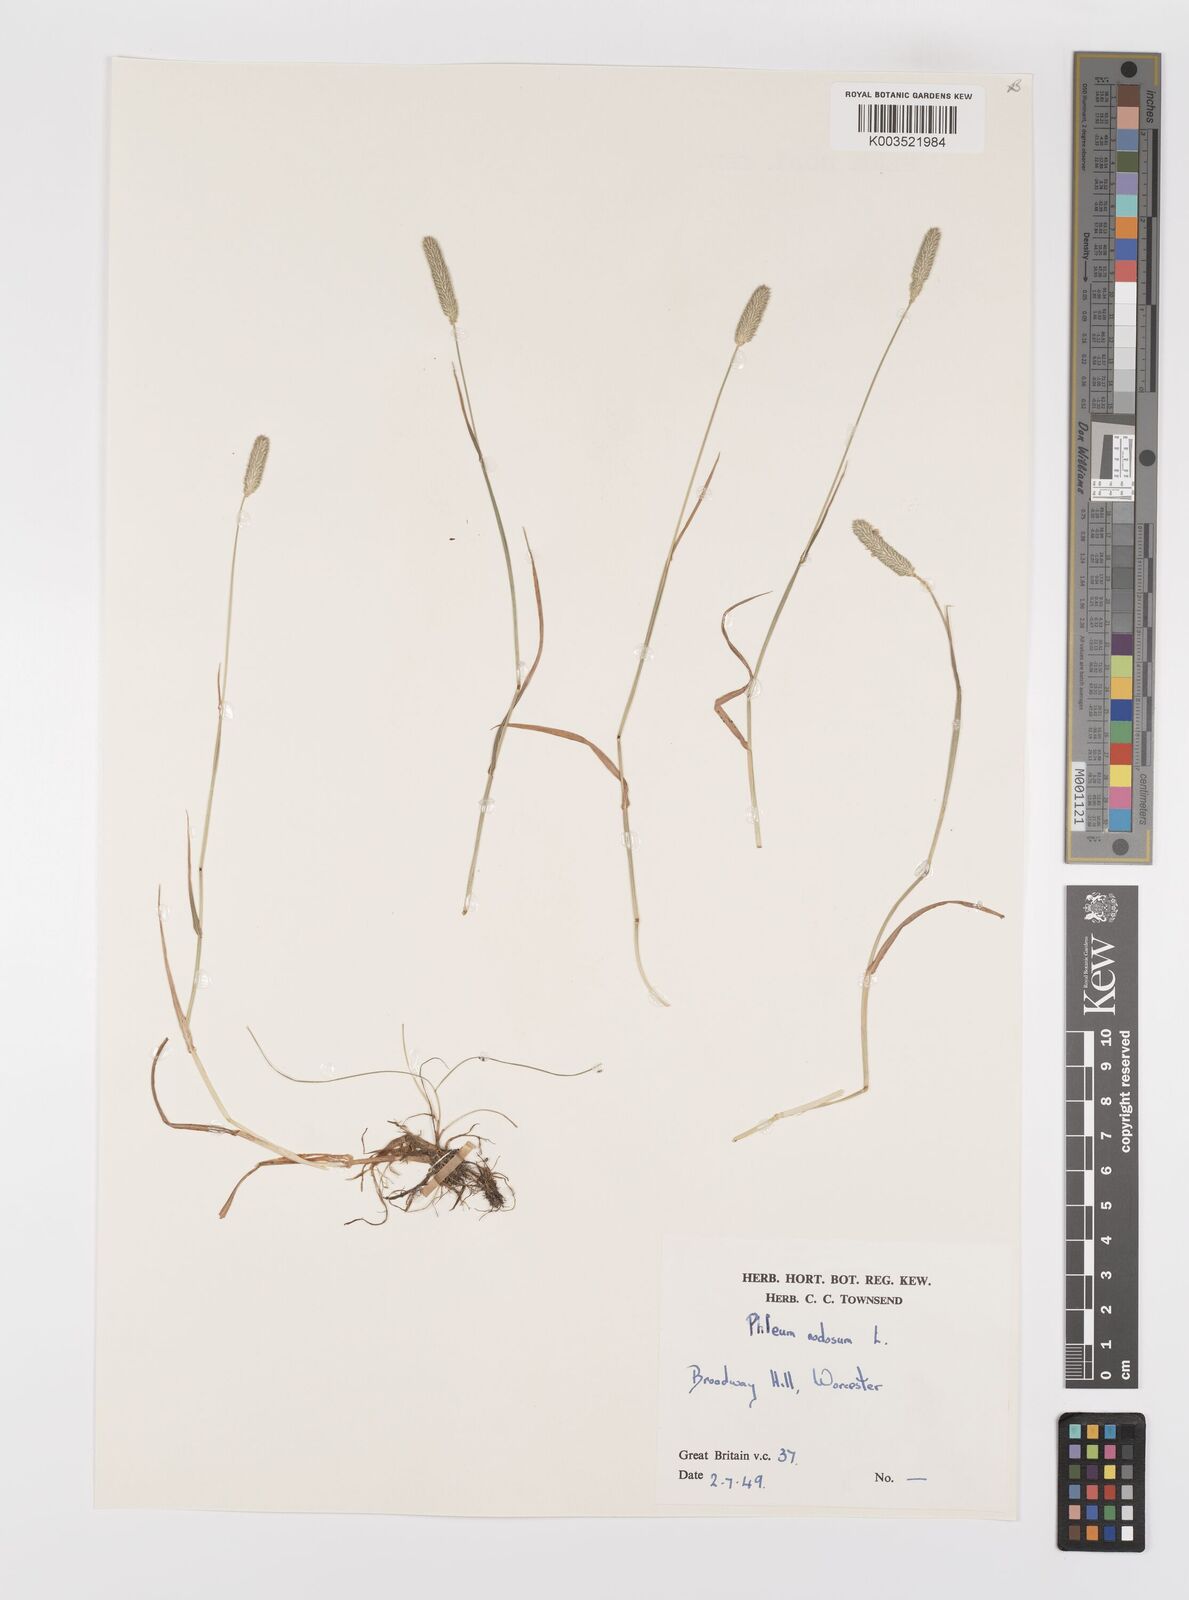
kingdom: Plantae
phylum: Tracheophyta
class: Liliopsida
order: Poales
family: Poaceae
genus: Phleum
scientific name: Phleum bertolonii
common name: Smaller cat's-tail
